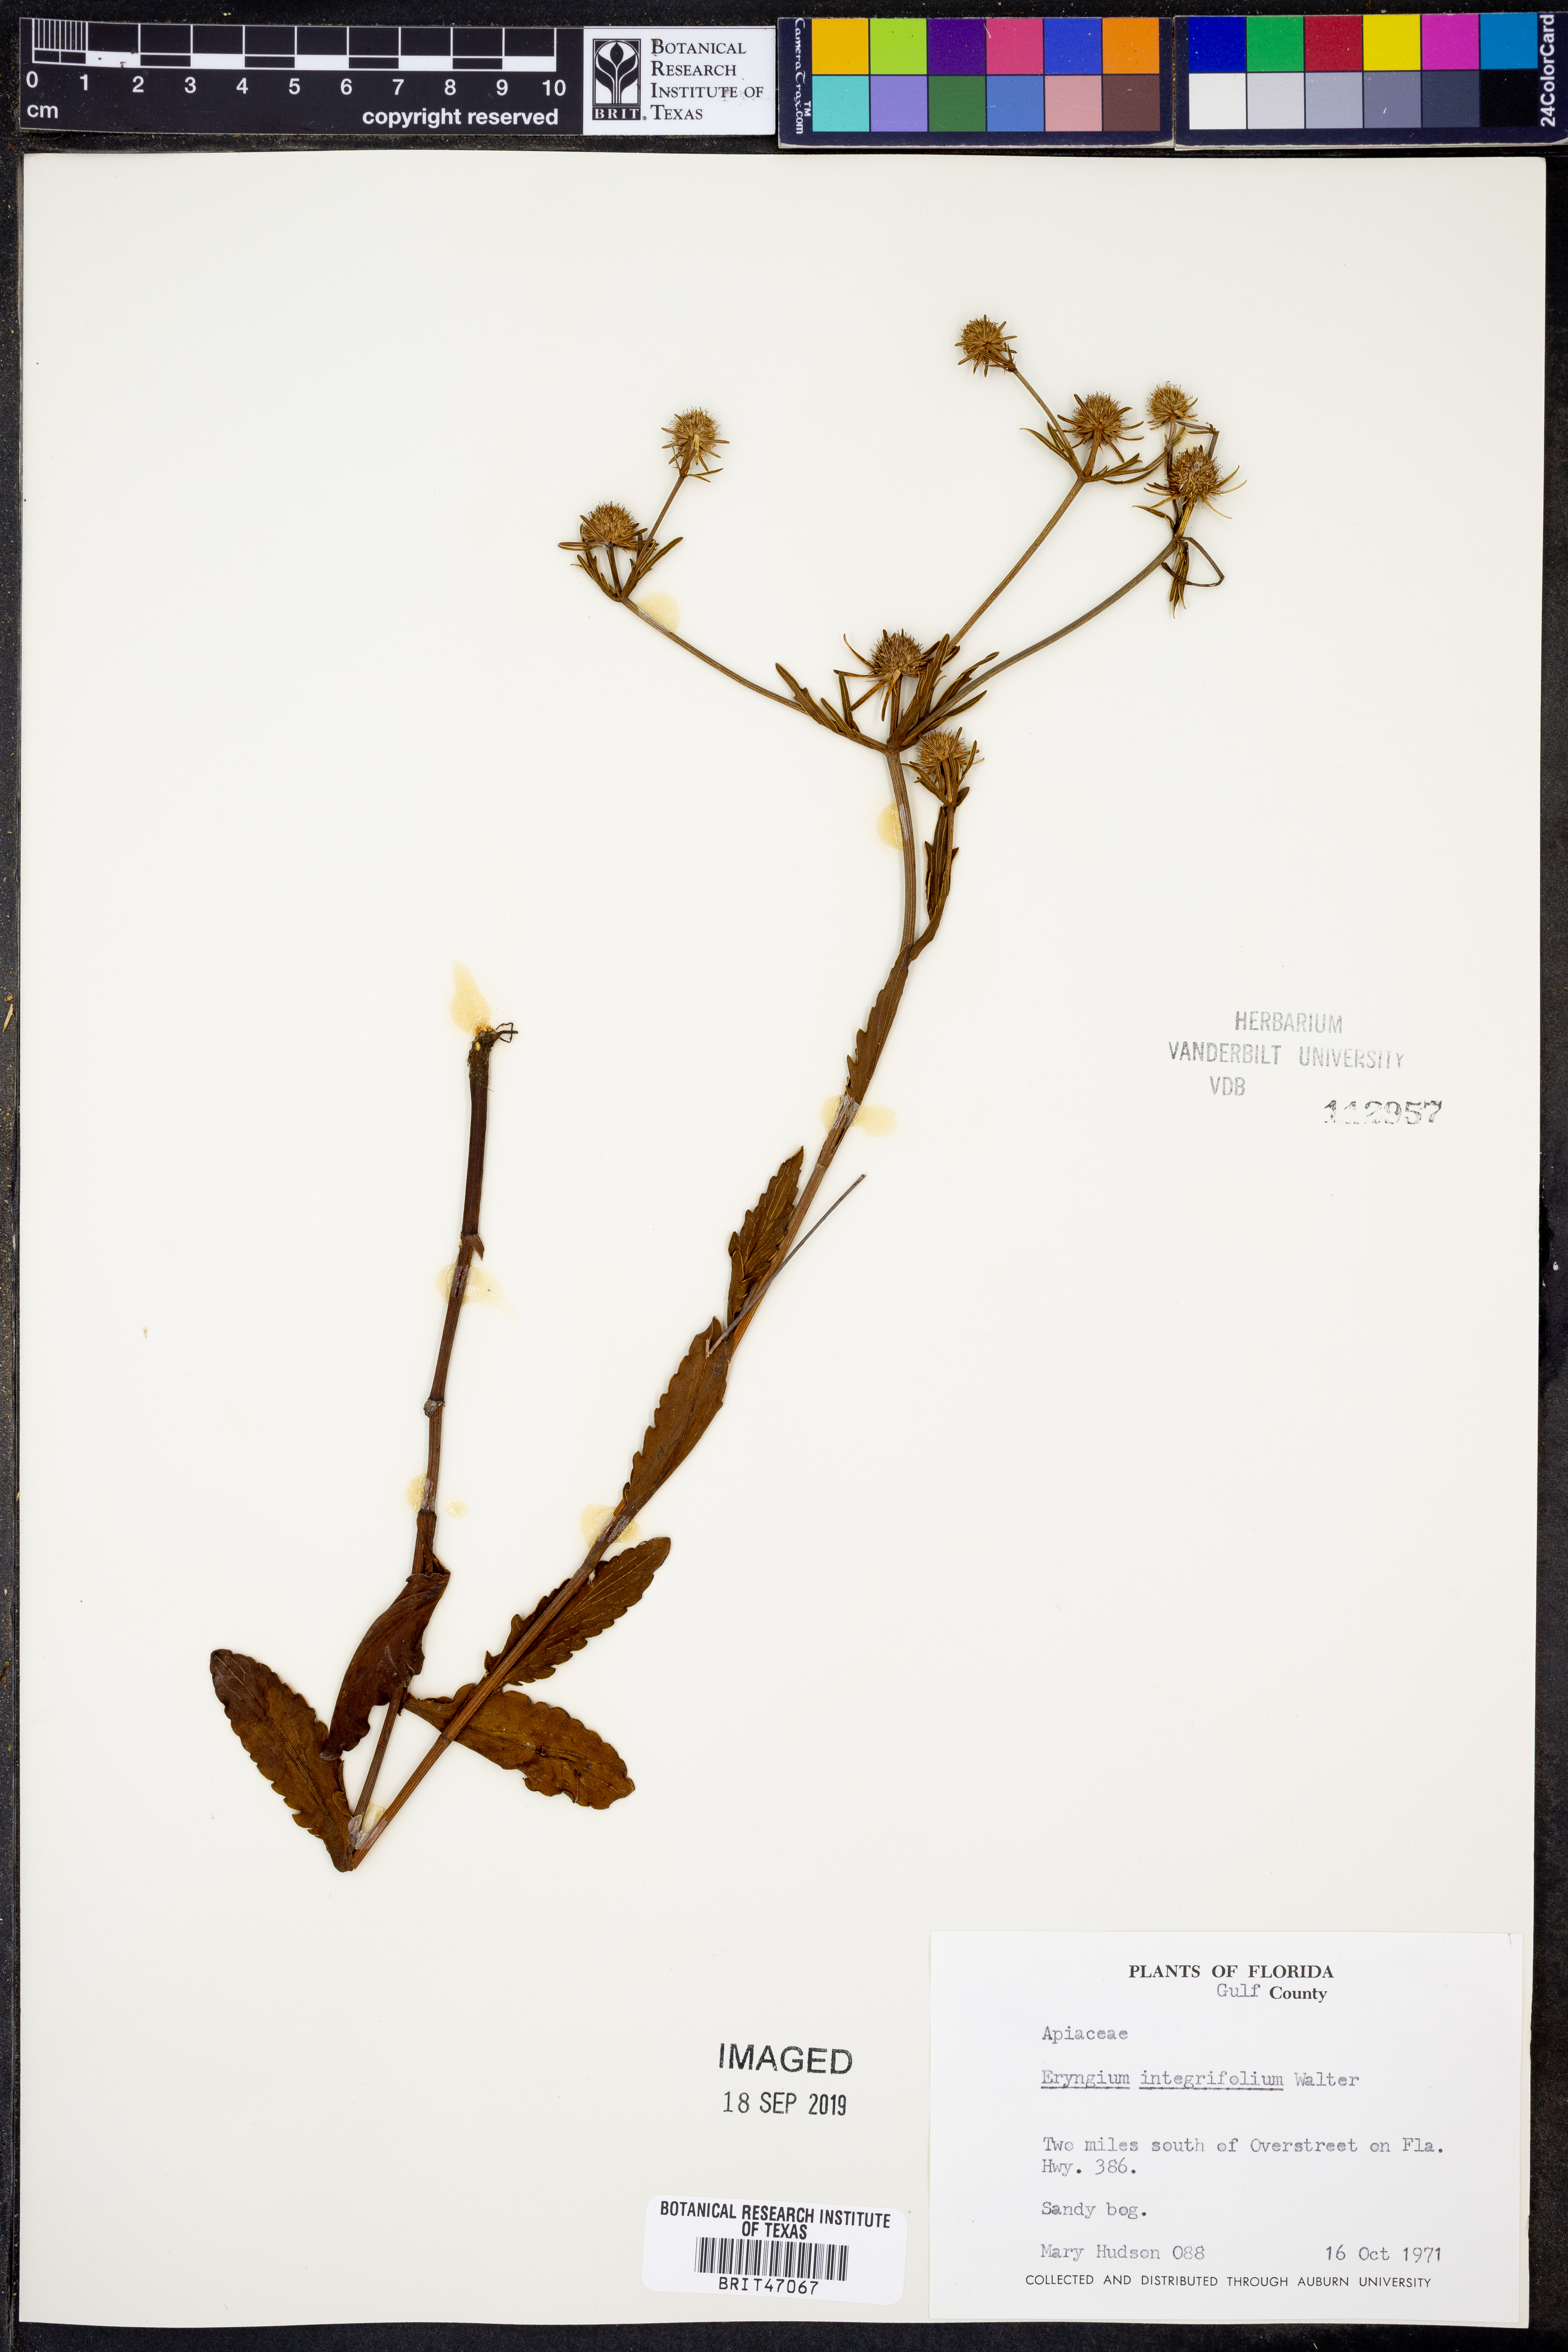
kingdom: Plantae
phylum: Tracheophyta
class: Magnoliopsida
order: Apiales
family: Apiaceae
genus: Eryngium
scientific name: Eryngium integrifolium
